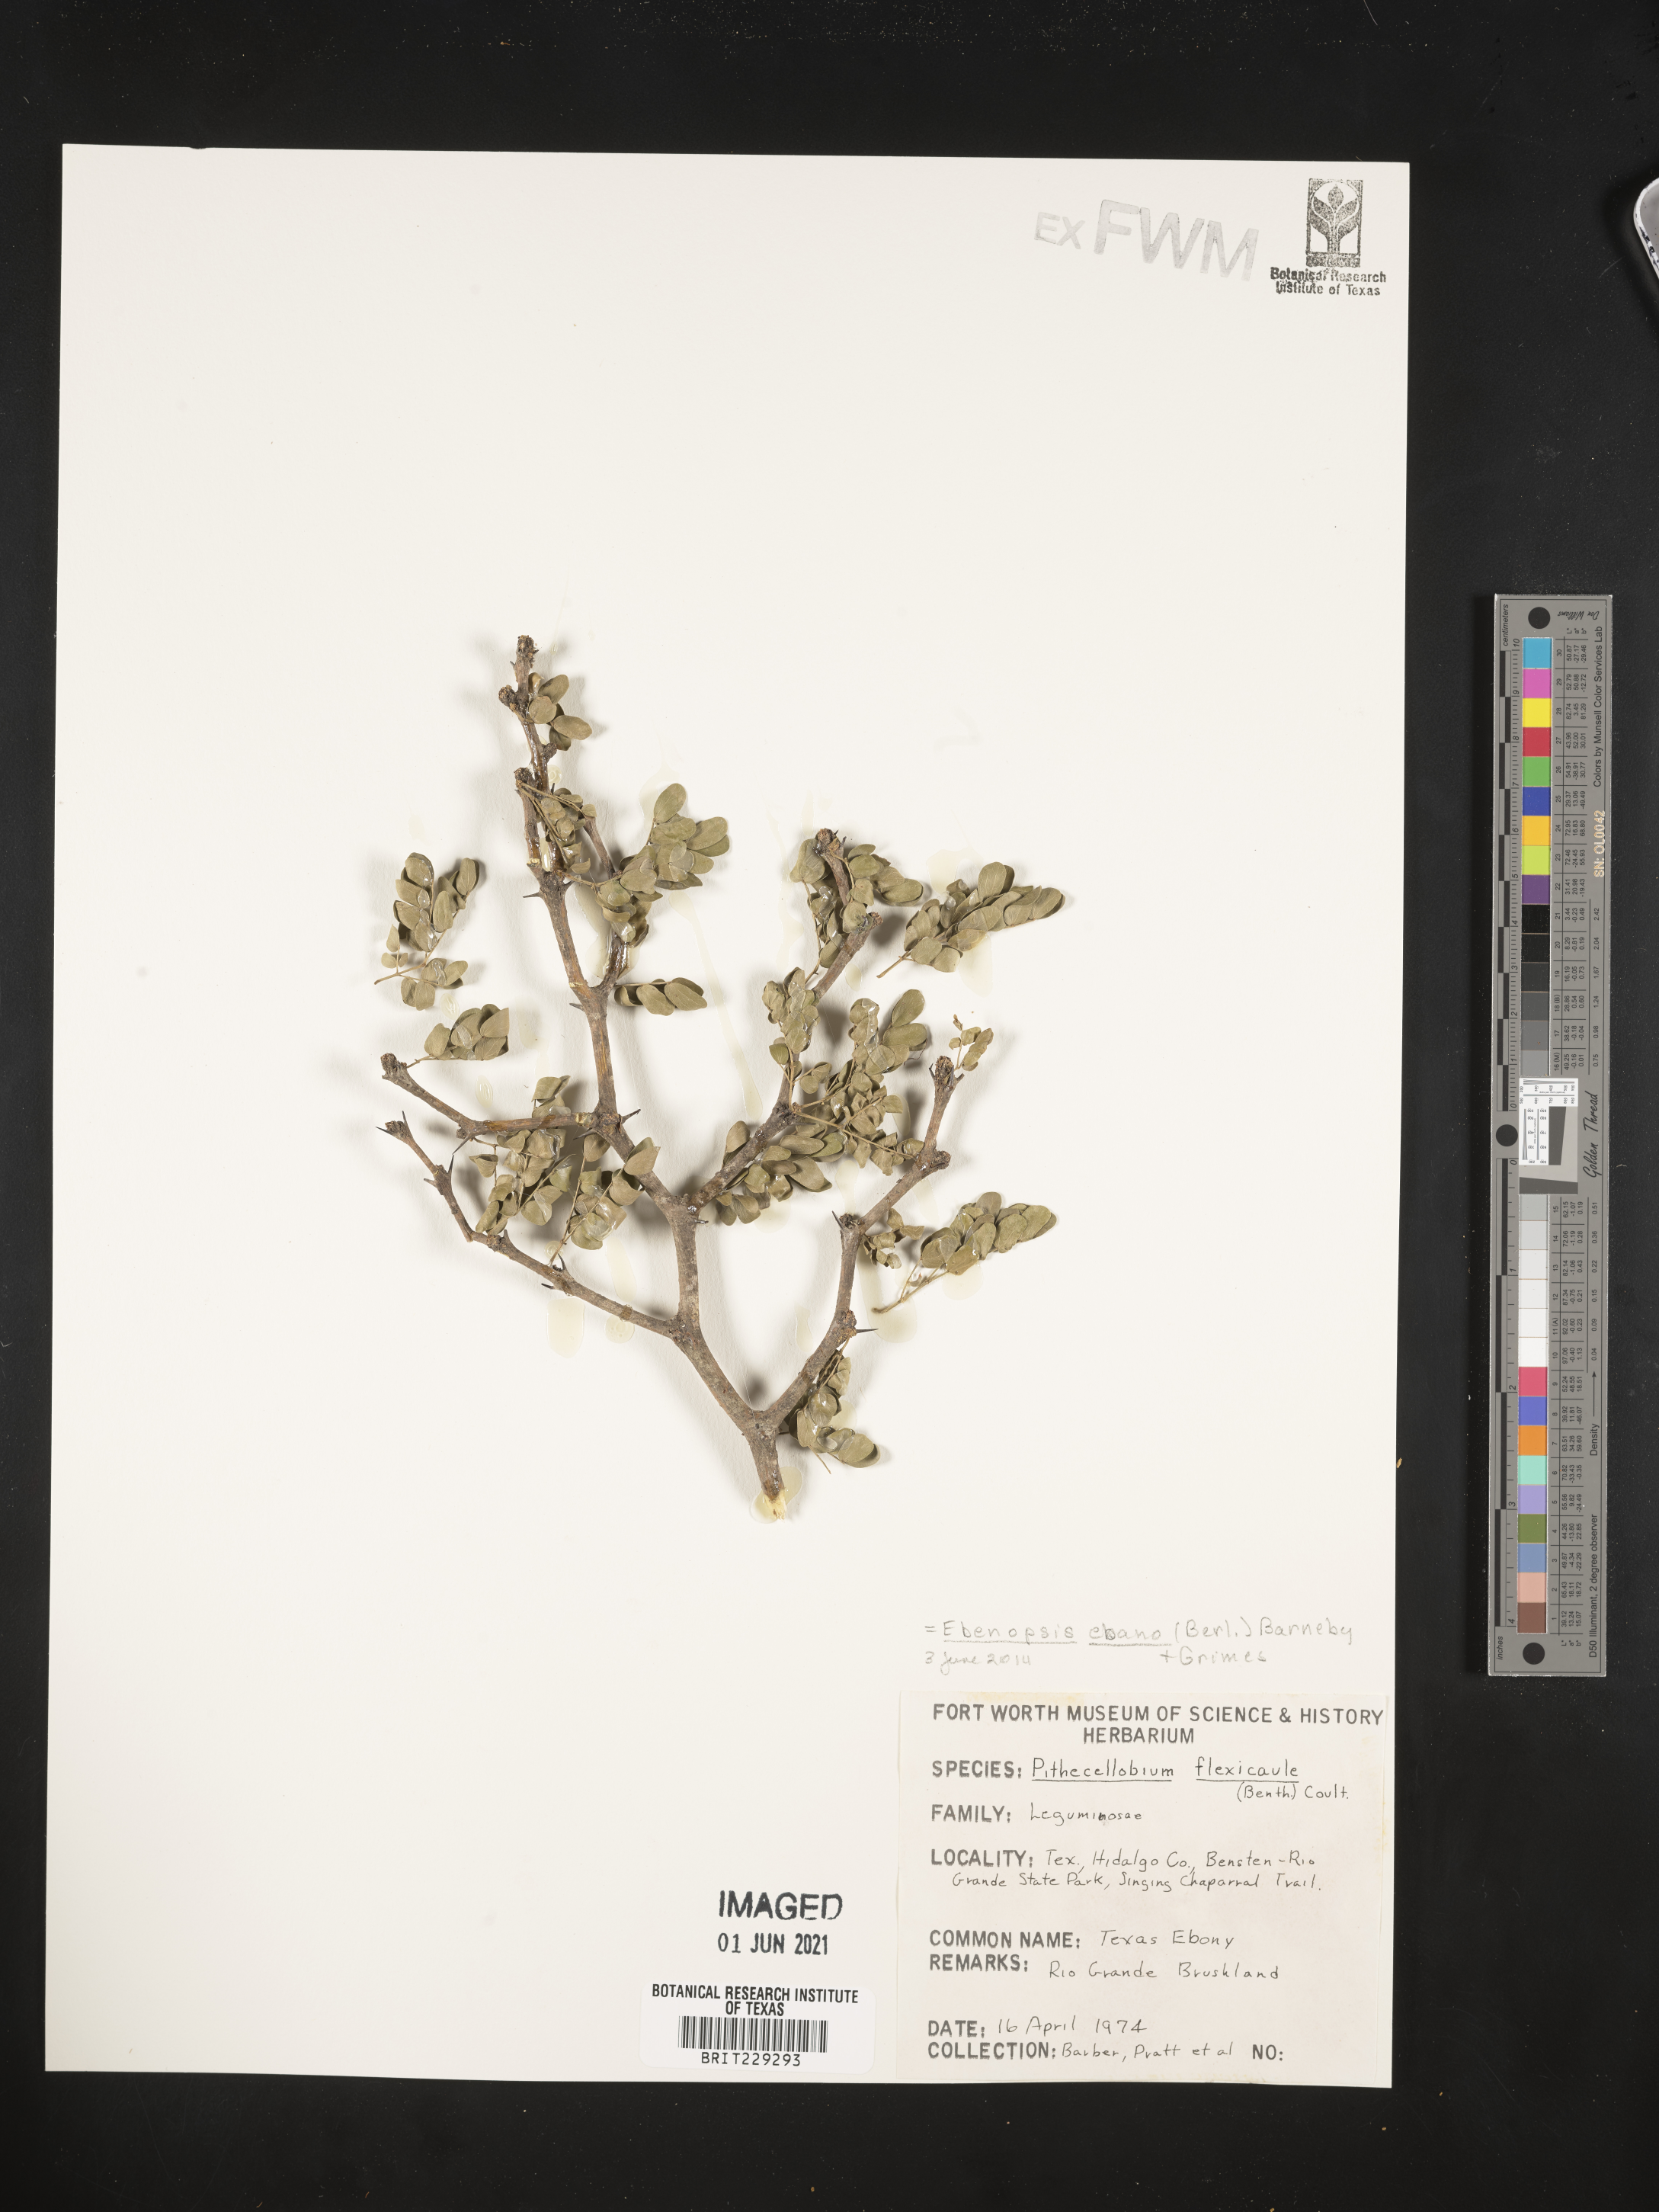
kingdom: Plantae
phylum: Tracheophyta
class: Magnoliopsida
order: Fabales
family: Fabaceae
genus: Ebenopsis
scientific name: Ebenopsis ebano
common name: Ebony blackbead
